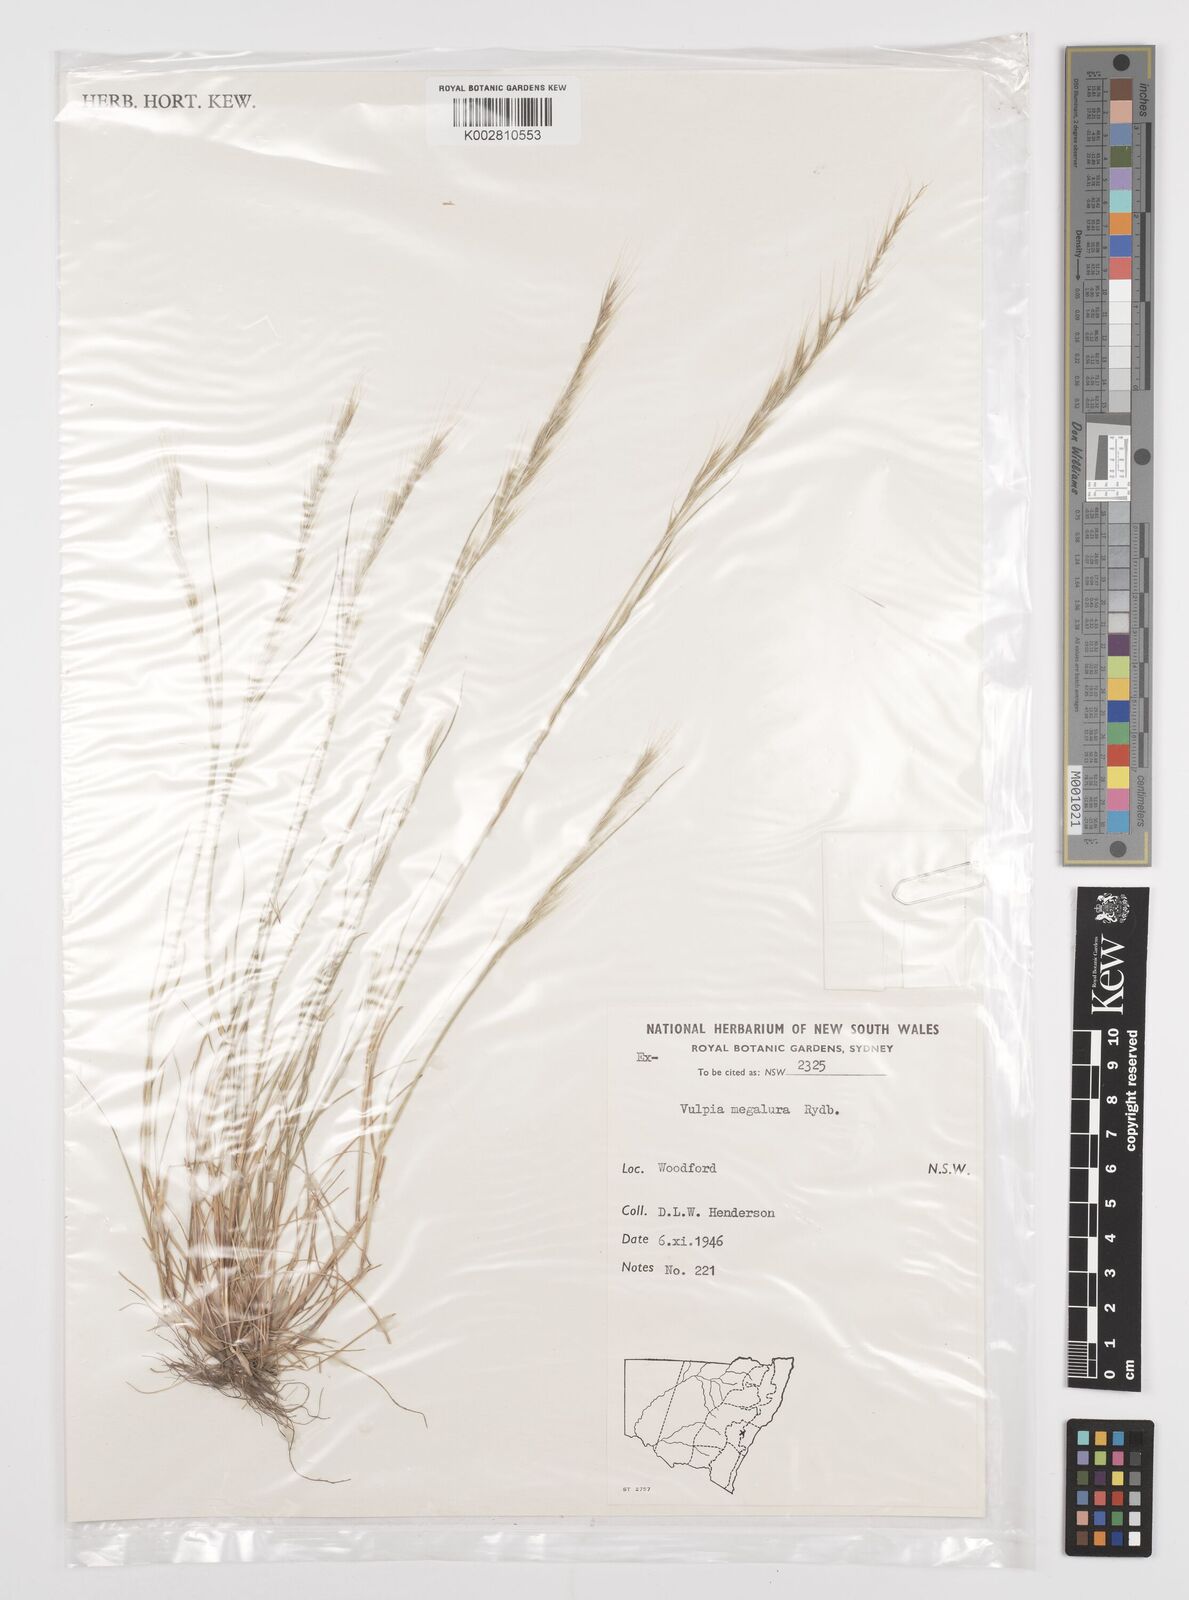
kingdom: Plantae
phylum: Tracheophyta
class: Liliopsida
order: Poales
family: Poaceae
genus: Festuca
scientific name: Festuca myuros
